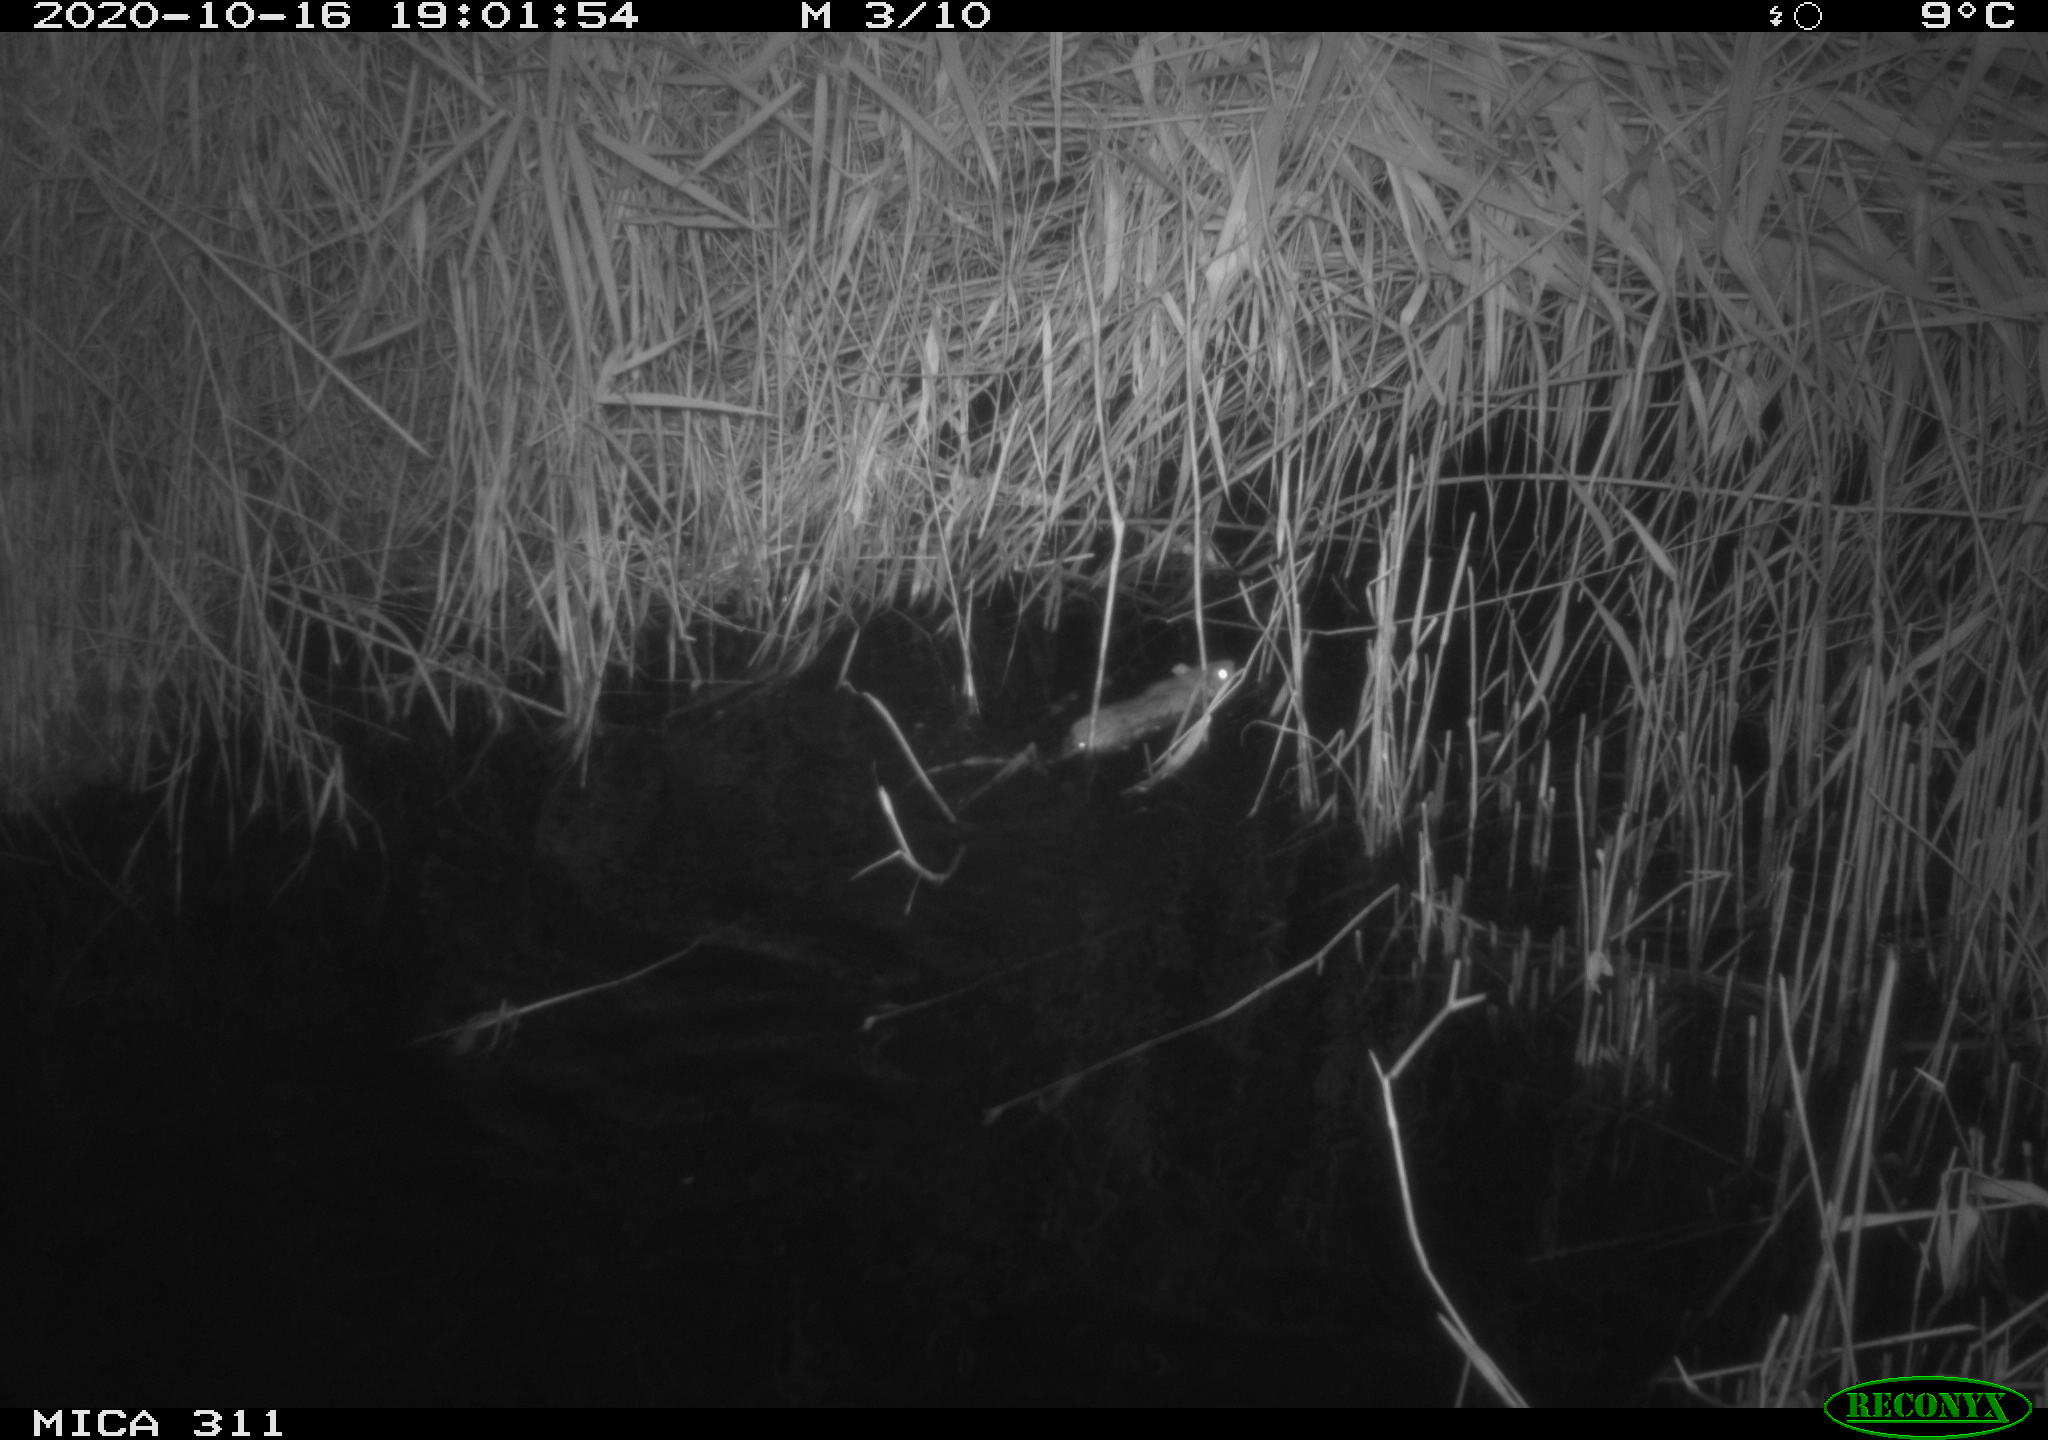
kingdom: Animalia
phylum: Chordata
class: Mammalia
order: Rodentia
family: Muridae
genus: Apodemus
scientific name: Apodemus sylvaticus
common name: Wood mouse
